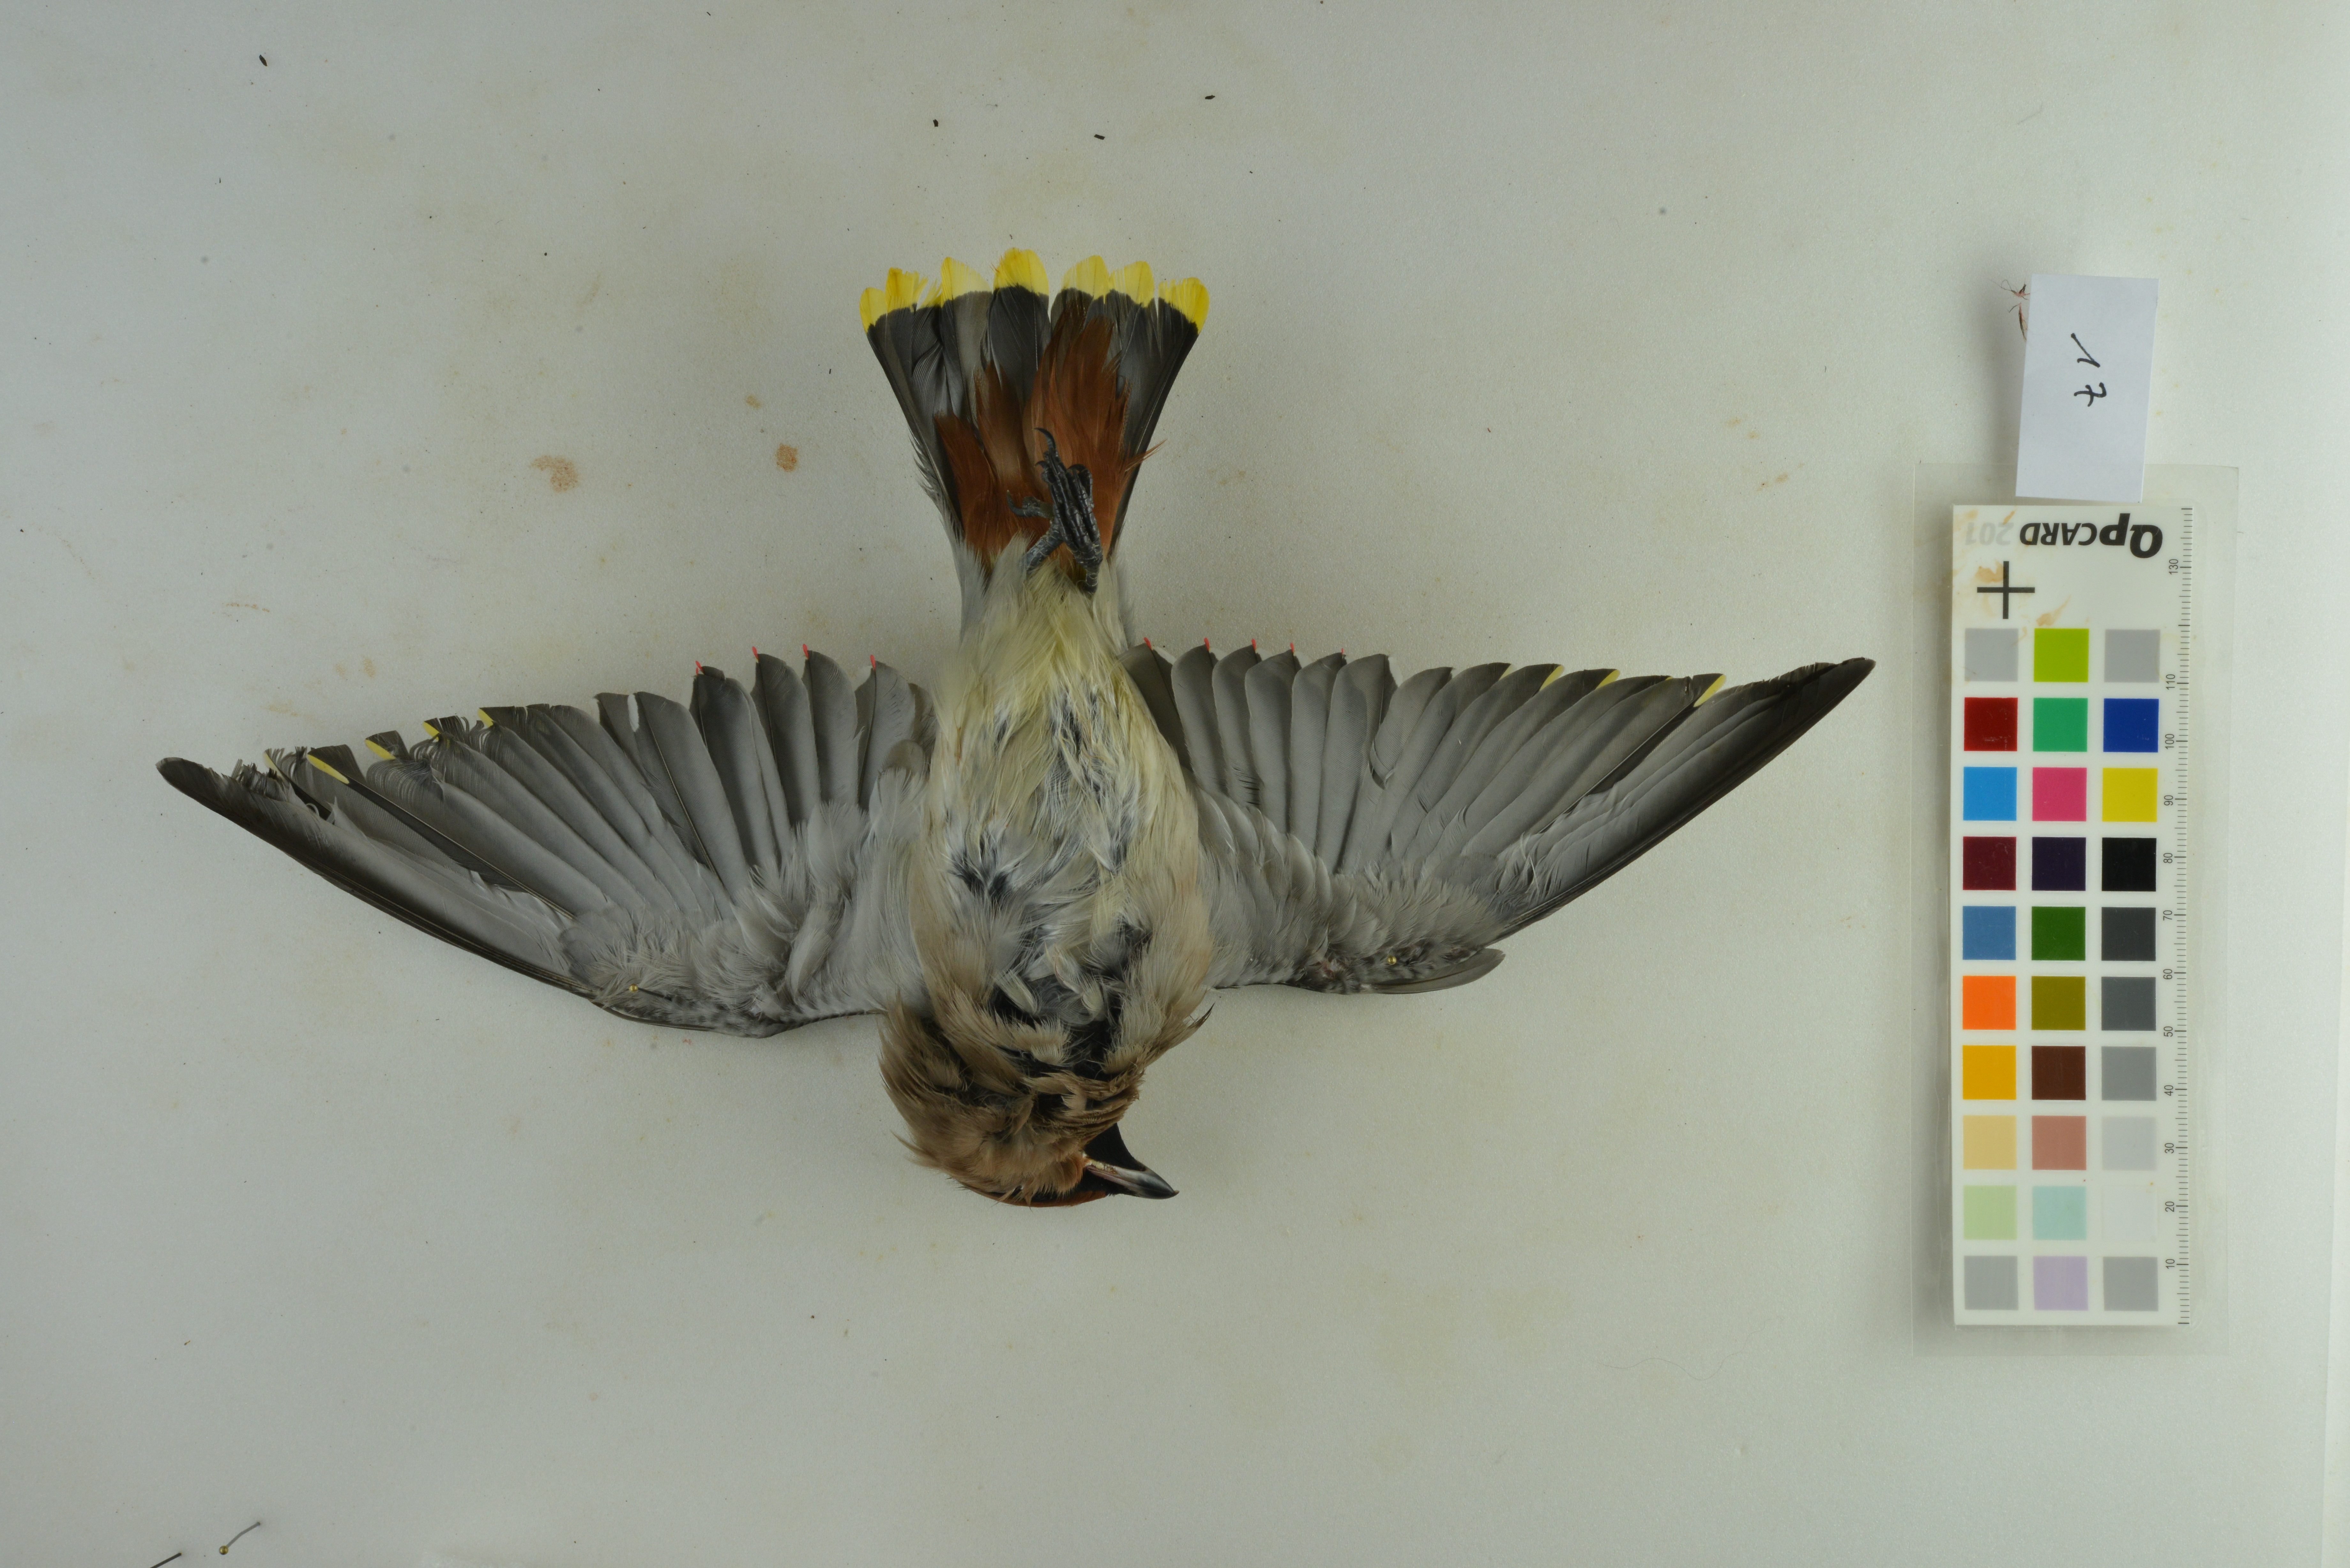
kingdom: Animalia
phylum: Chordata
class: Aves
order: Passeriformes
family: Bombycillidae
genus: Bombycilla
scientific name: Bombycilla garrulus
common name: Bohemian waxwing
